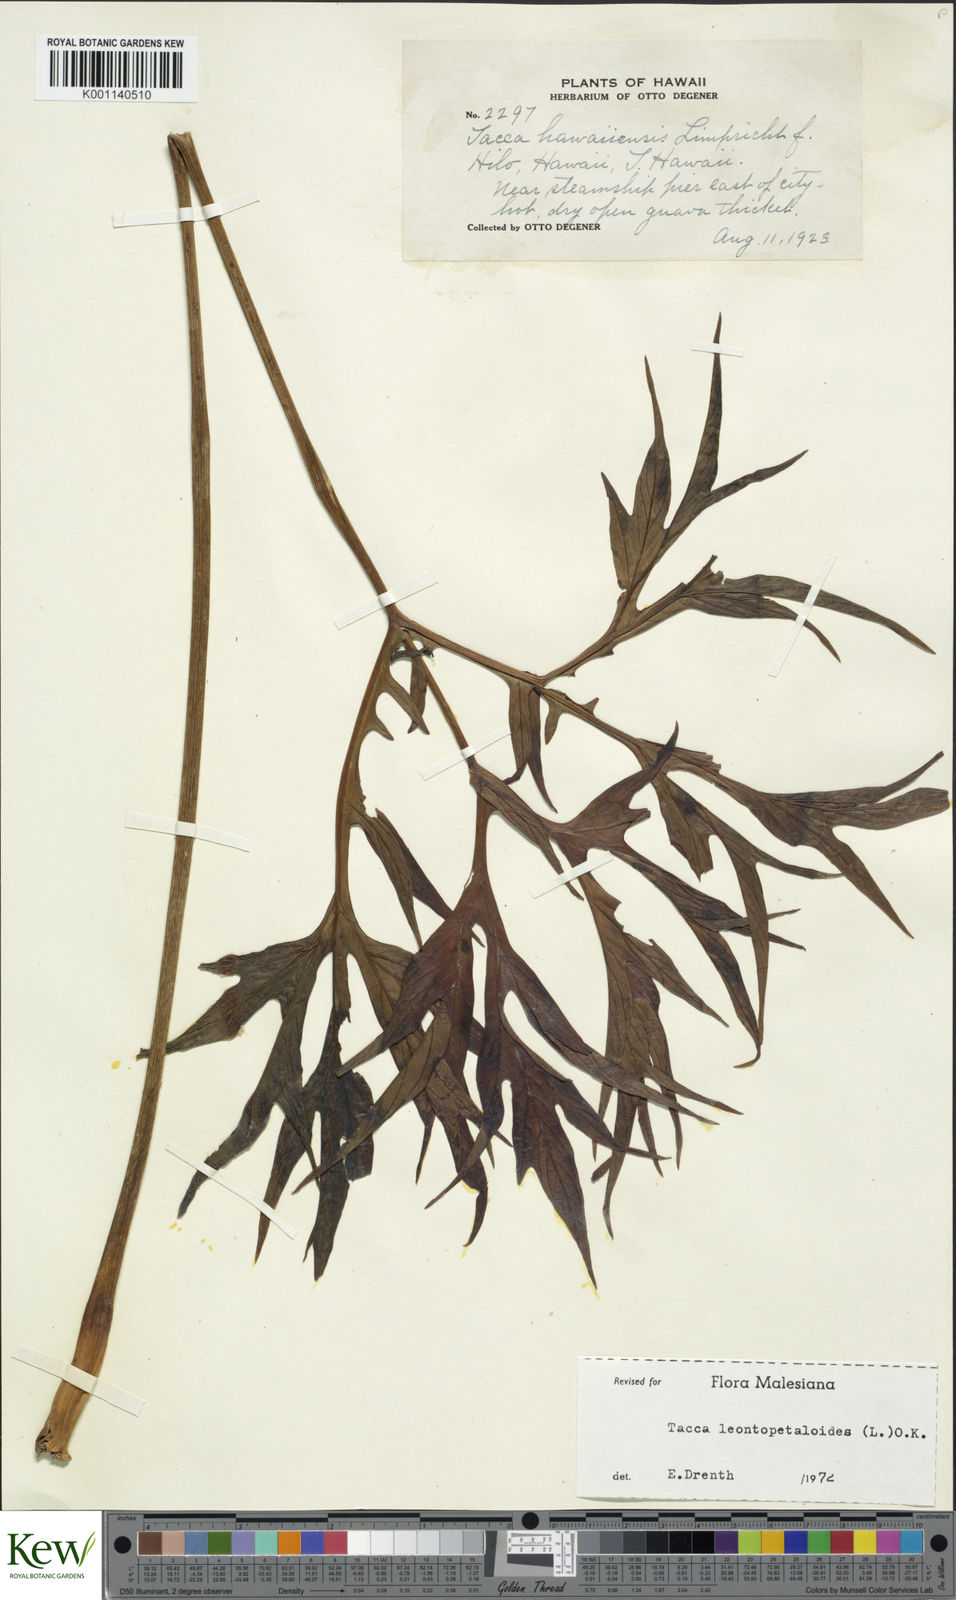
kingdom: Plantae
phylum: Tracheophyta
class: Liliopsida
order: Dioscoreales
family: Dioscoreaceae
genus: Tacca
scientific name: Tacca leontopetaloides
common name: Arrowroot
